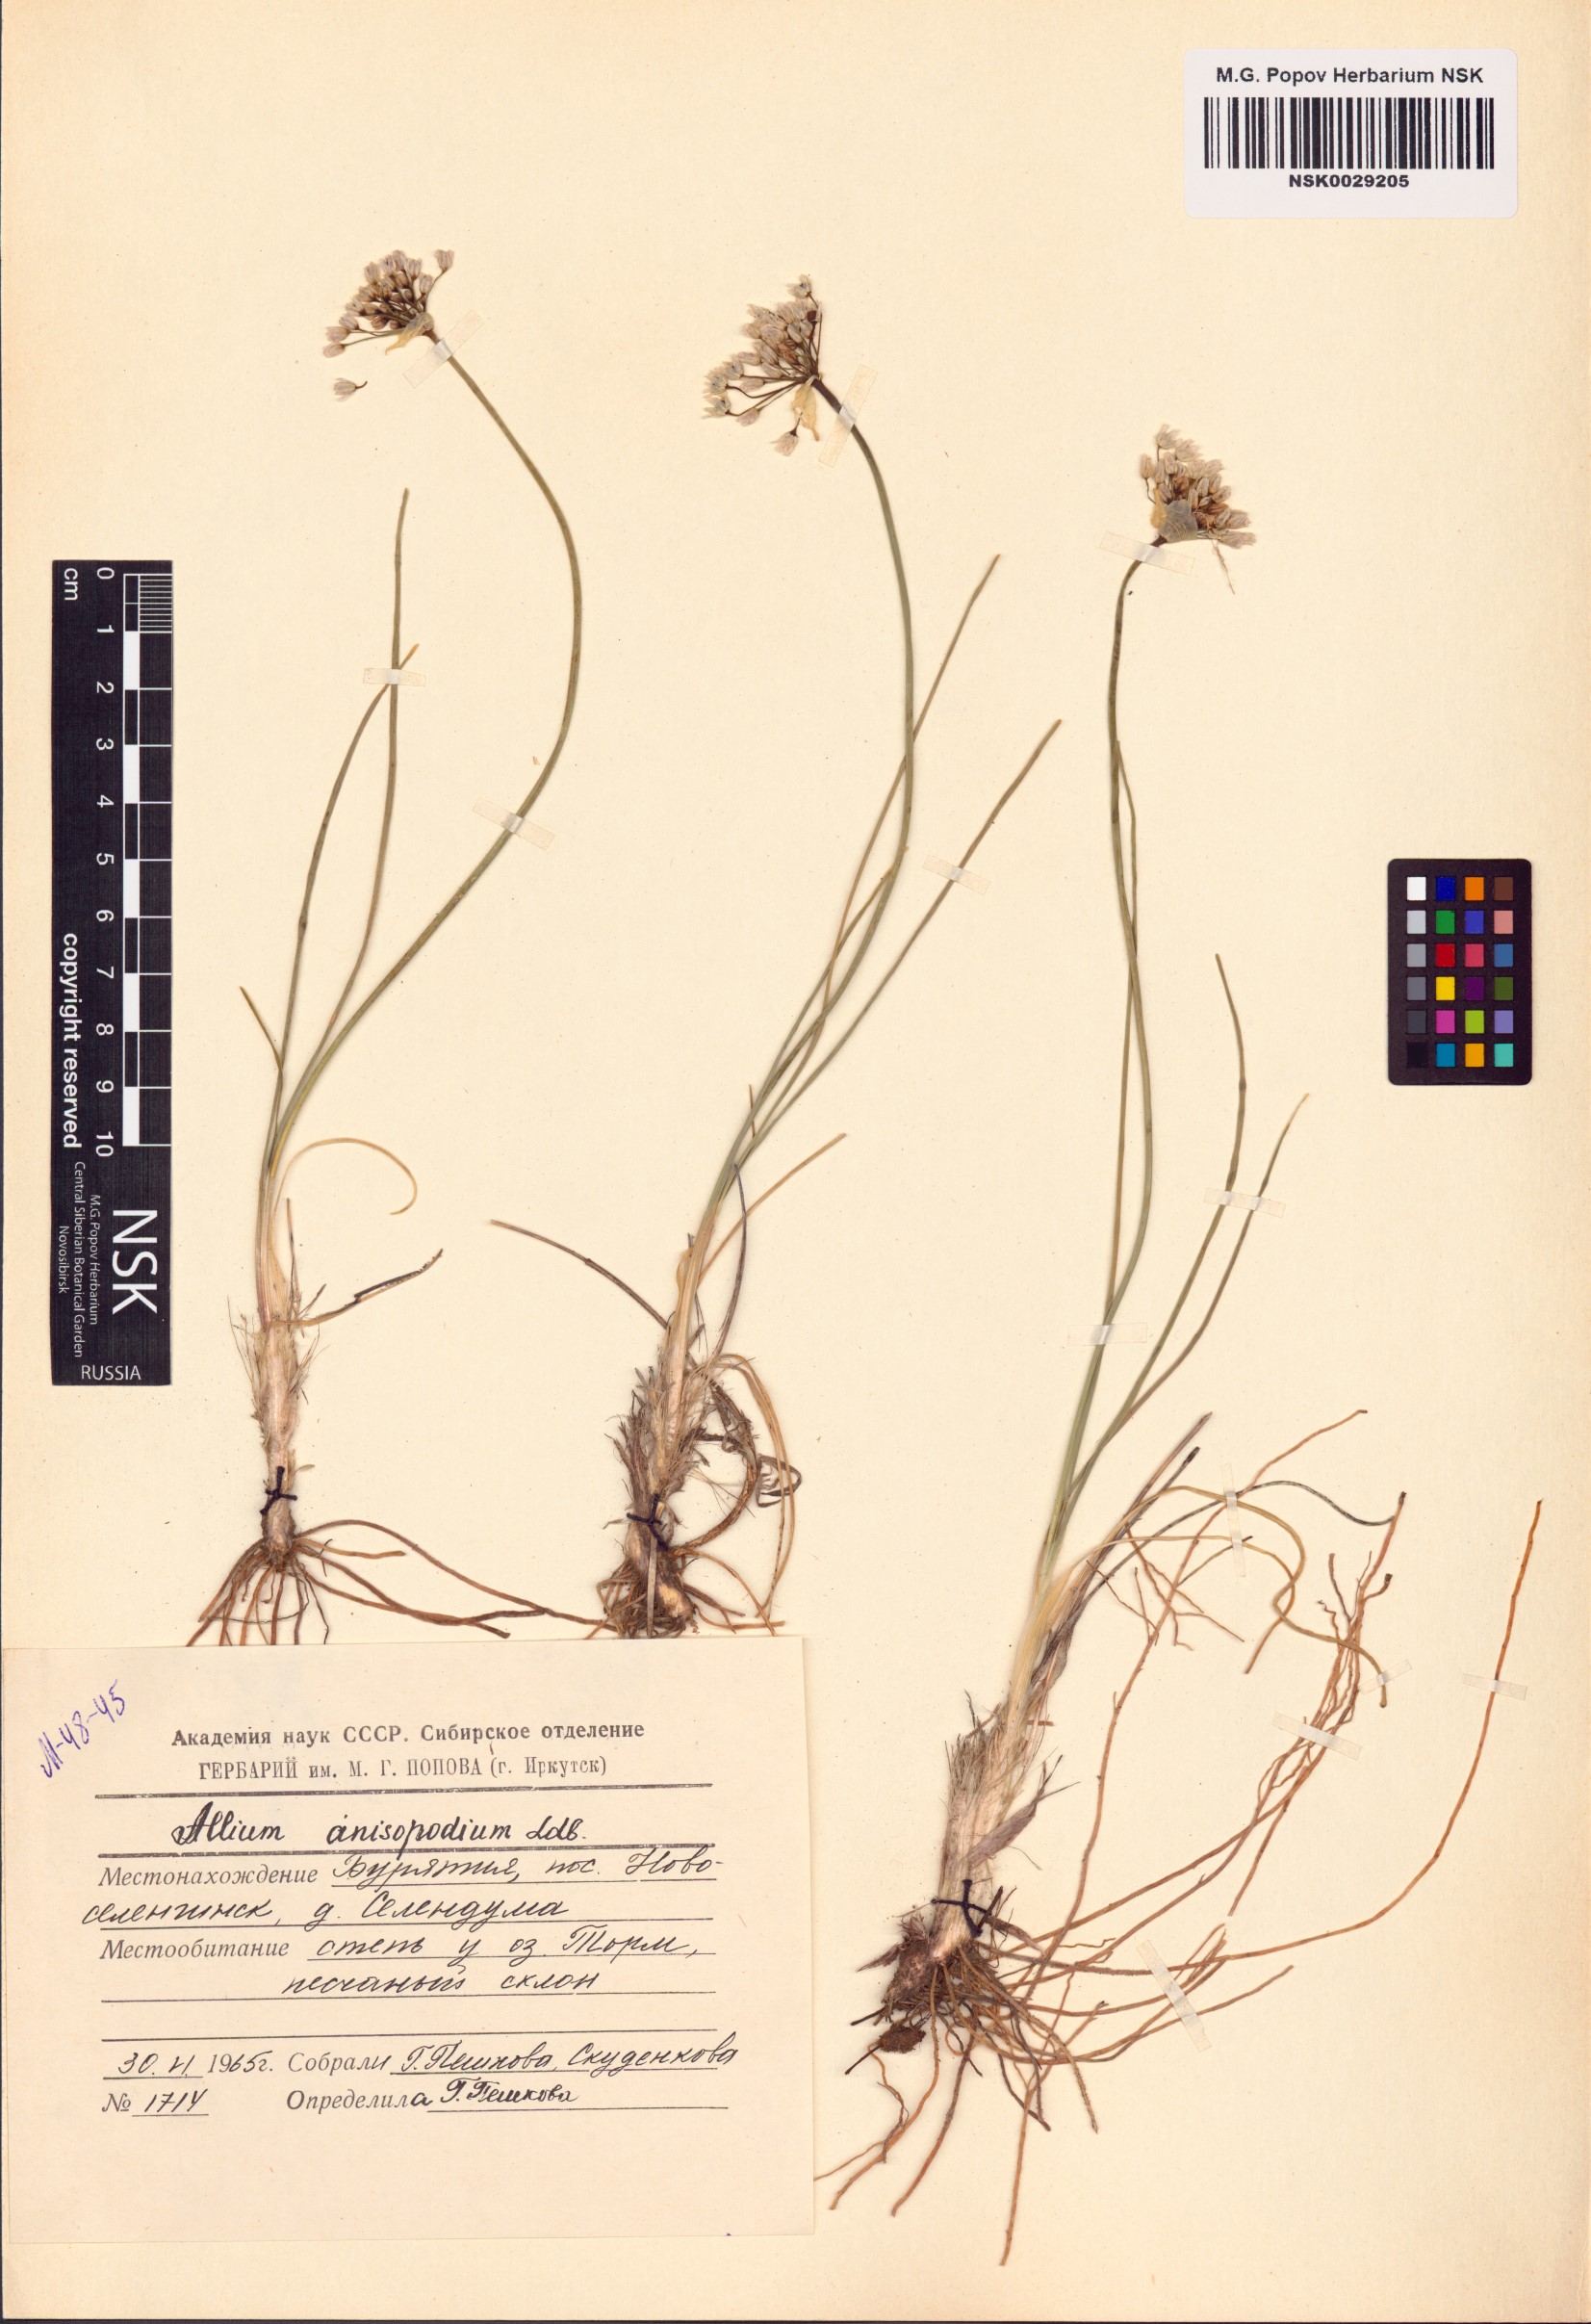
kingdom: Plantae
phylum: Tracheophyta
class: Liliopsida
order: Asparagales
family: Amaryllidaceae
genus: Allium
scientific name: Allium anisopodium
